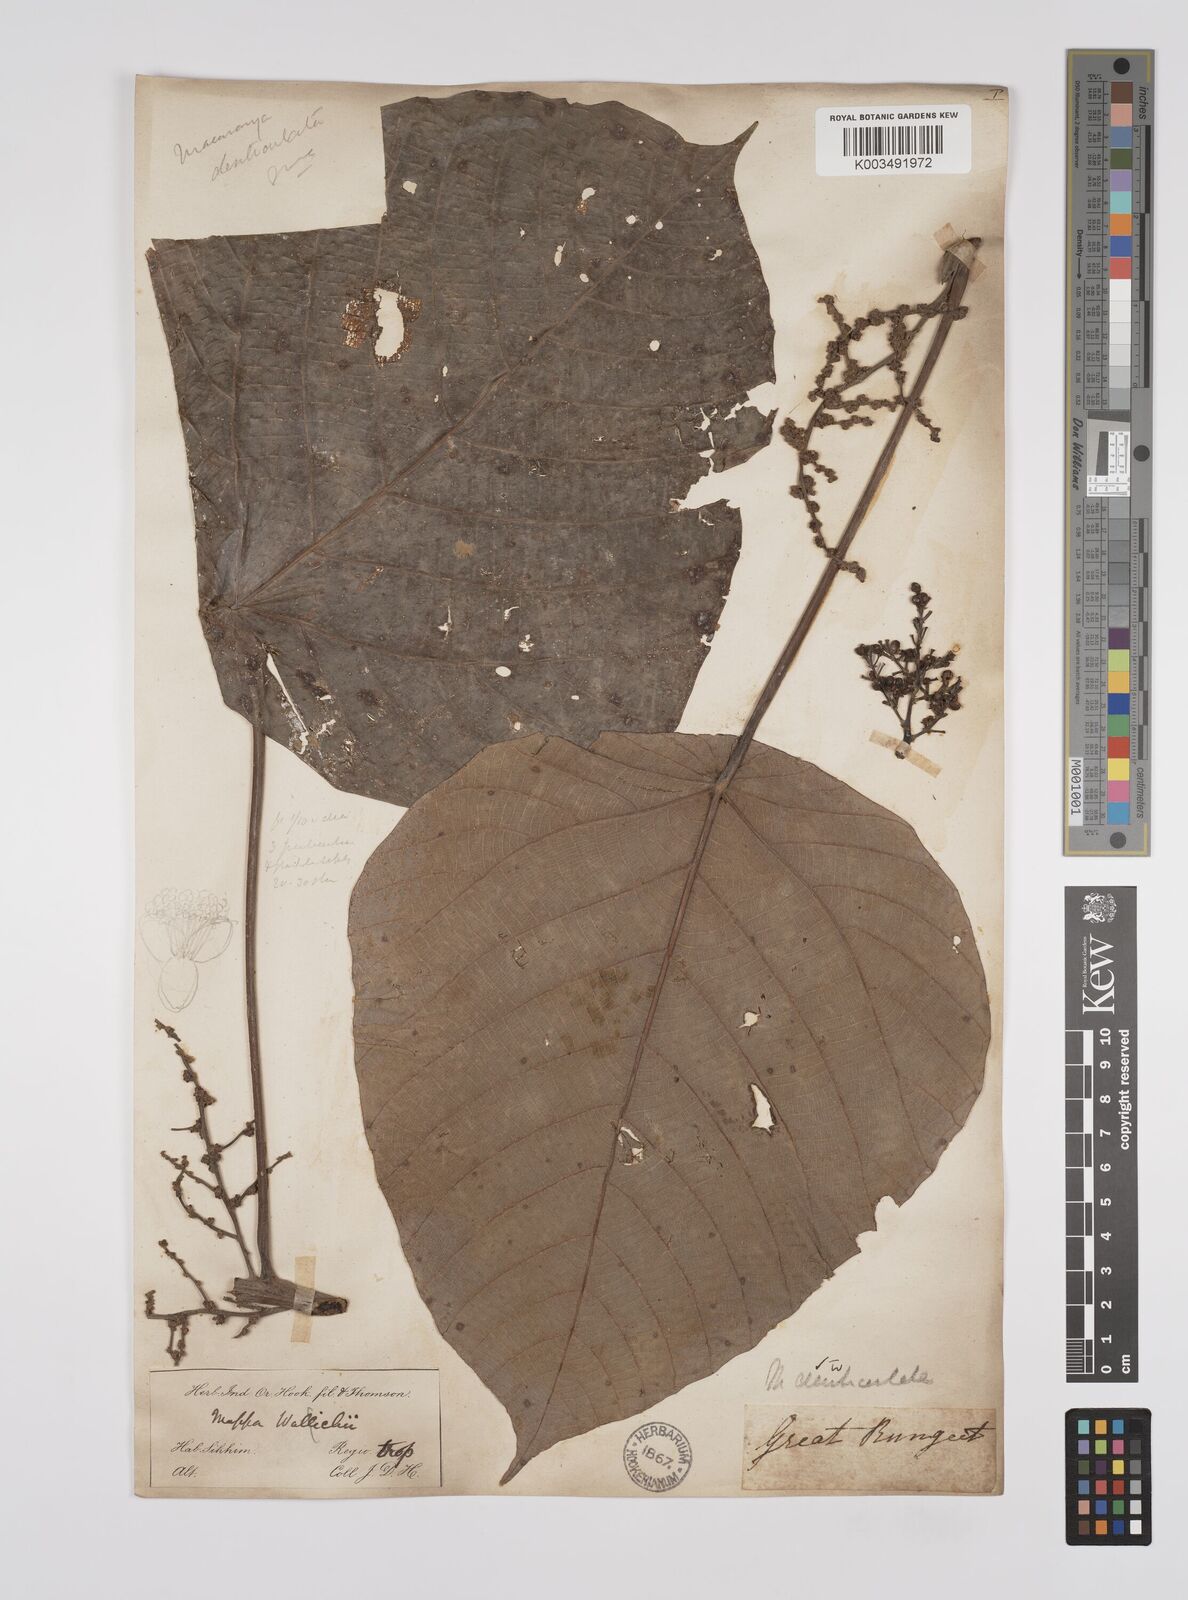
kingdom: Plantae
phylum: Tracheophyta
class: Magnoliopsida
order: Malpighiales
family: Euphorbiaceae
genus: Macaranga
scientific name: Macaranga denticulata
